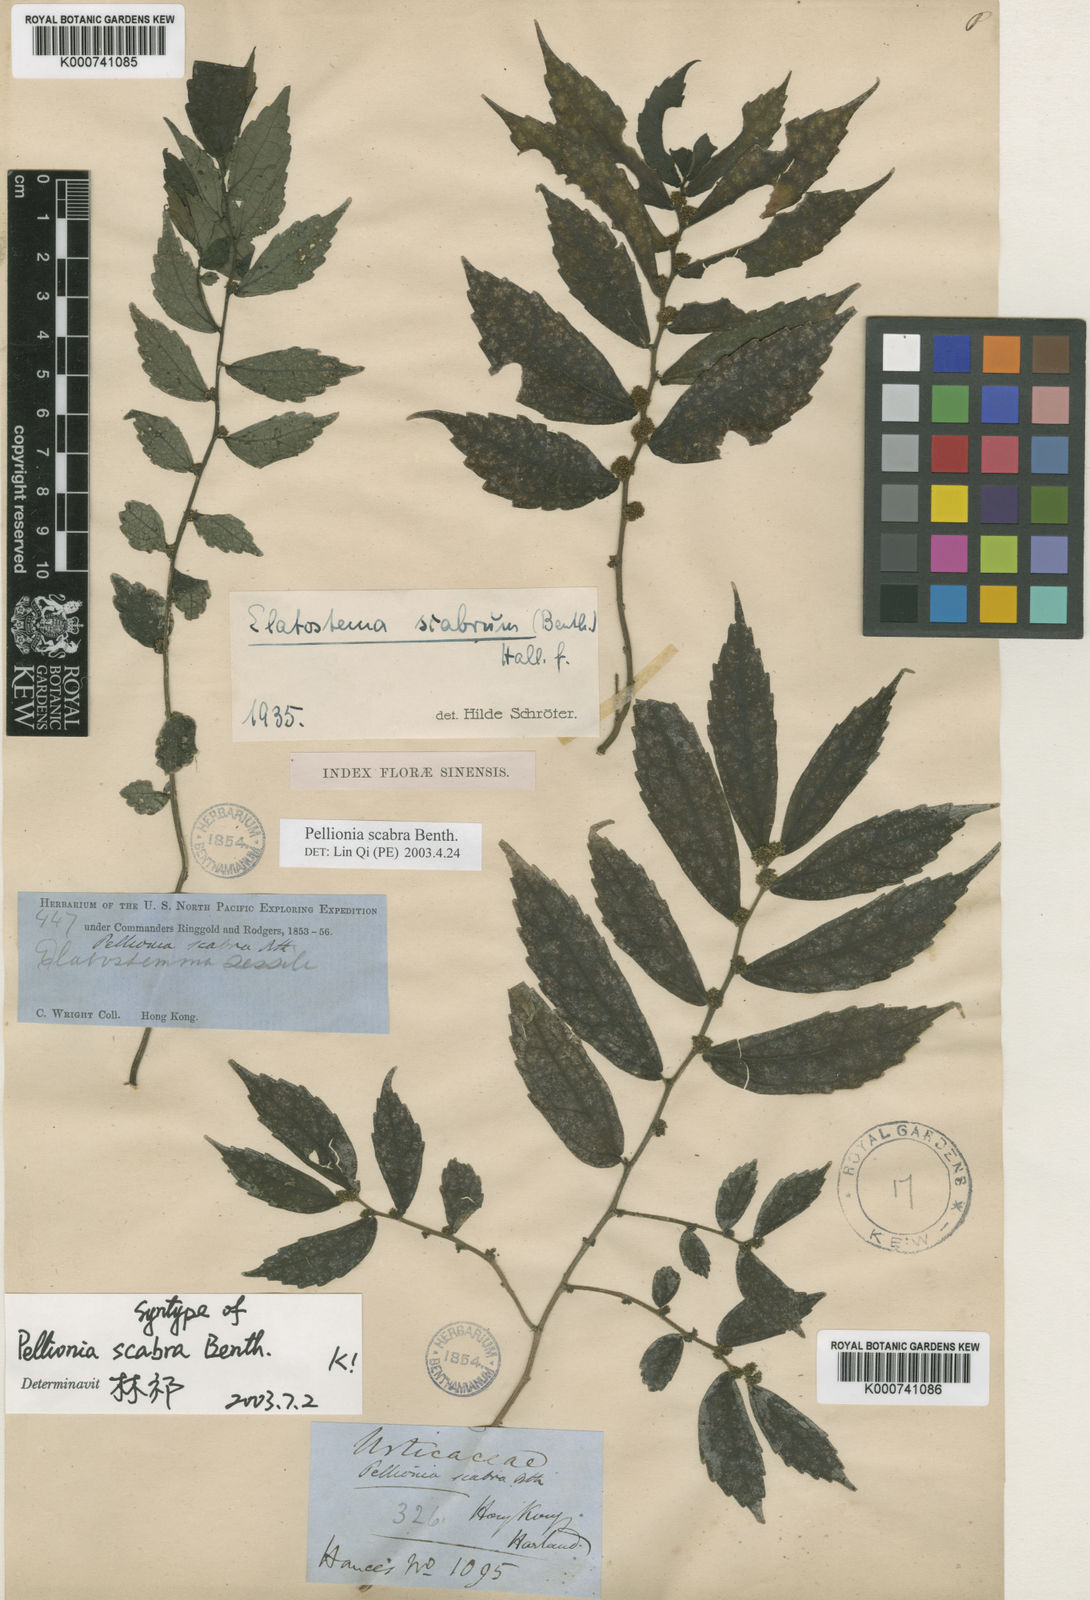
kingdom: Plantae
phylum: Tracheophyta
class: Magnoliopsida
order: Rosales
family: Urticaceae
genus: Elatostema
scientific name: Elatostema scabrum
